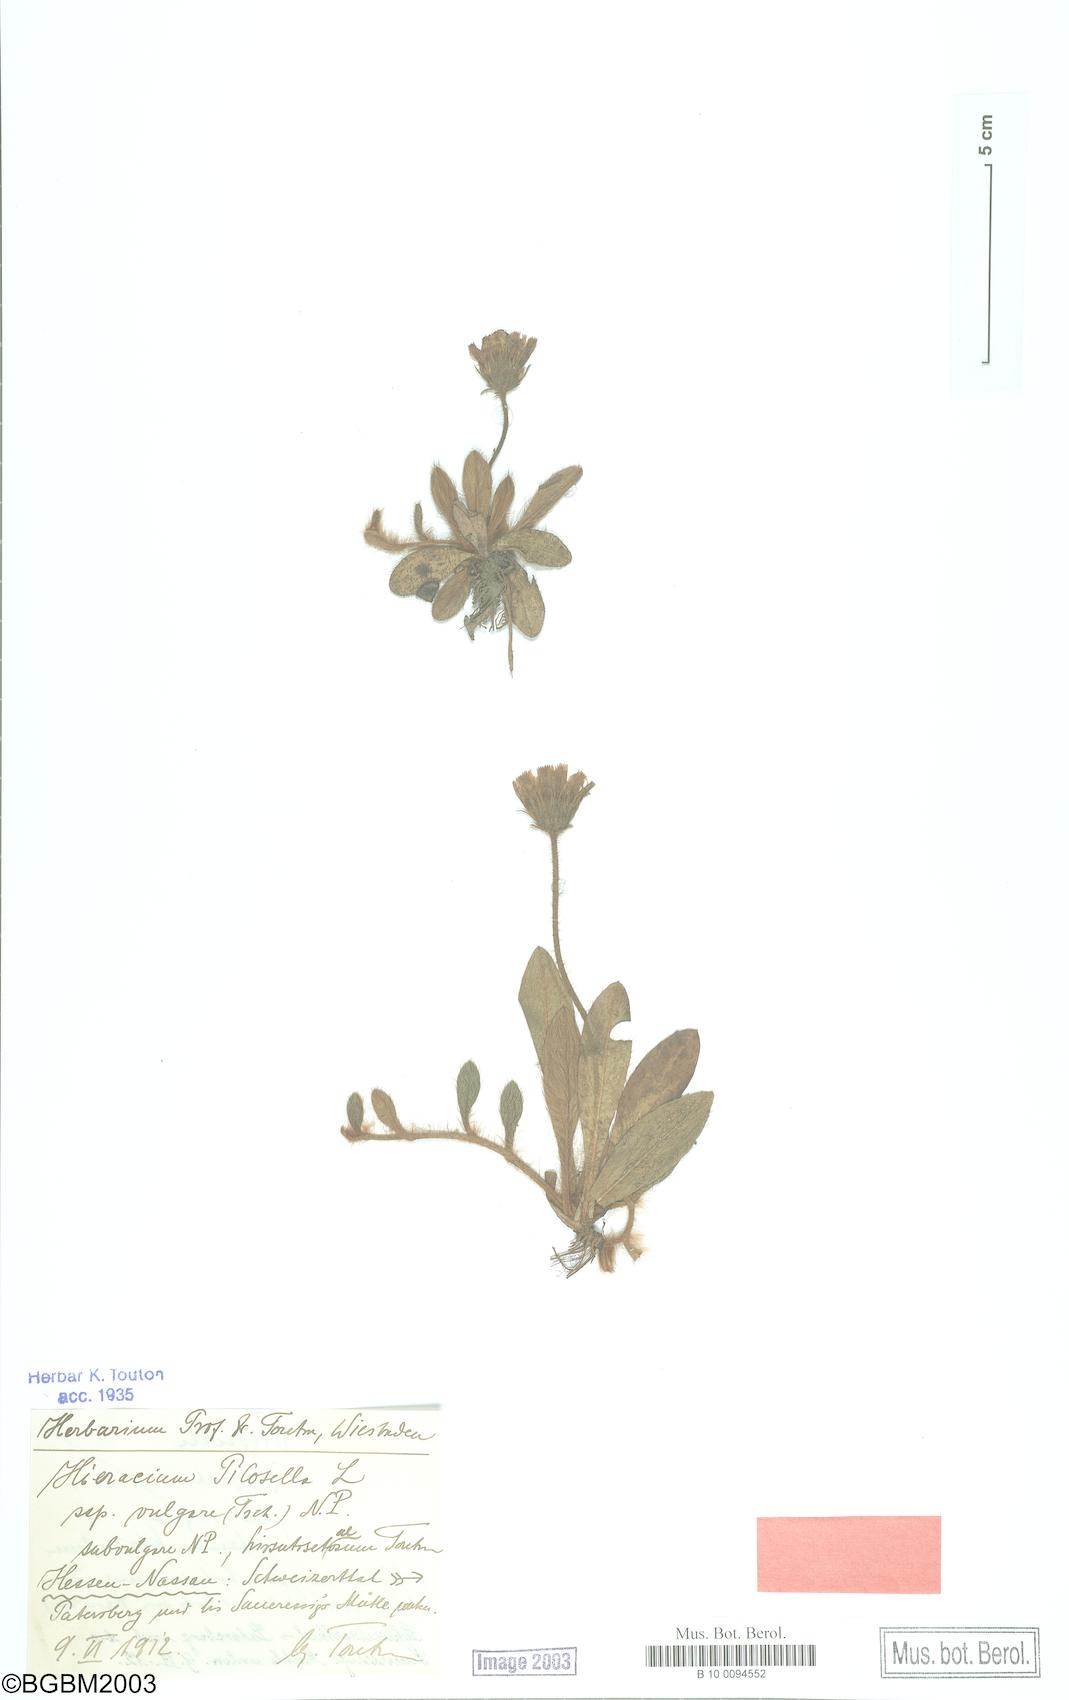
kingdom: Plantae
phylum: Tracheophyta
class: Magnoliopsida
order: Asterales
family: Asteraceae
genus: Pilosella
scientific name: Pilosella officinarum
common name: Mouse-ear hawkweed
